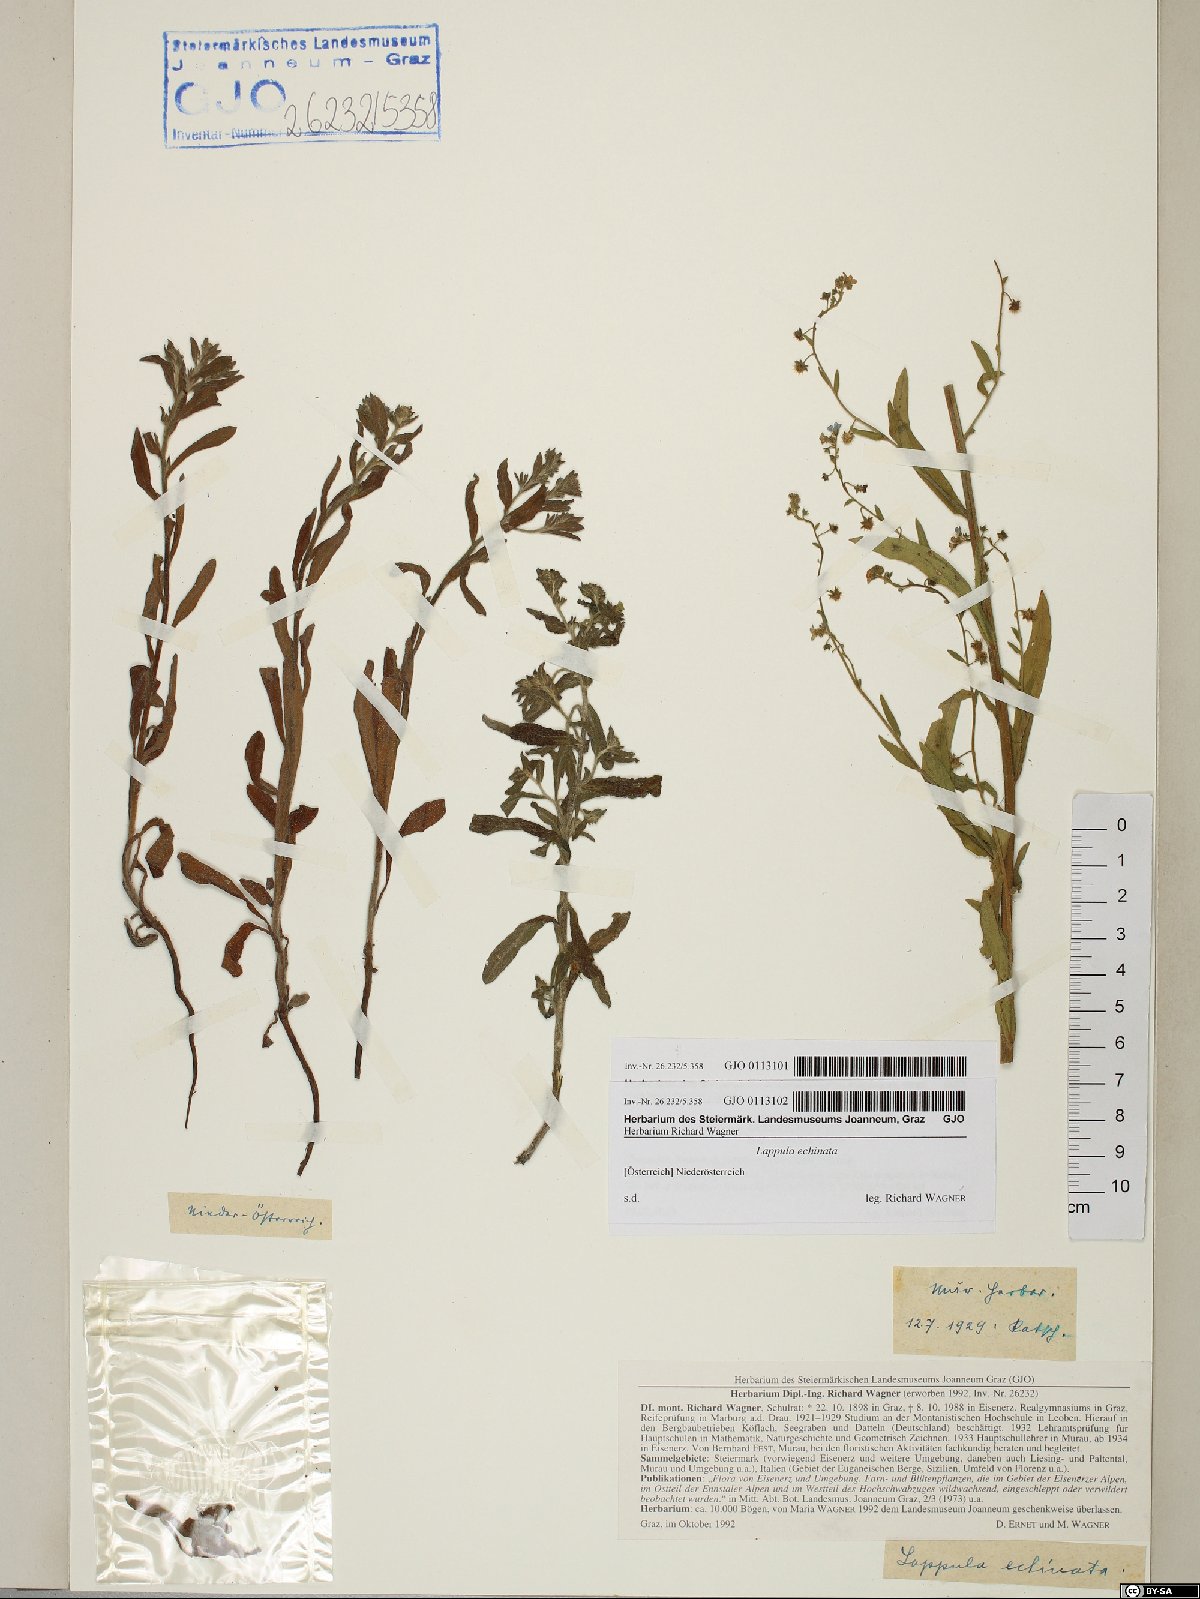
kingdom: Plantae
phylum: Tracheophyta
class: Magnoliopsida
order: Boraginales
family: Boraginaceae
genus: Lappula
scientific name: Lappula squarrosa
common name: European stickseed
